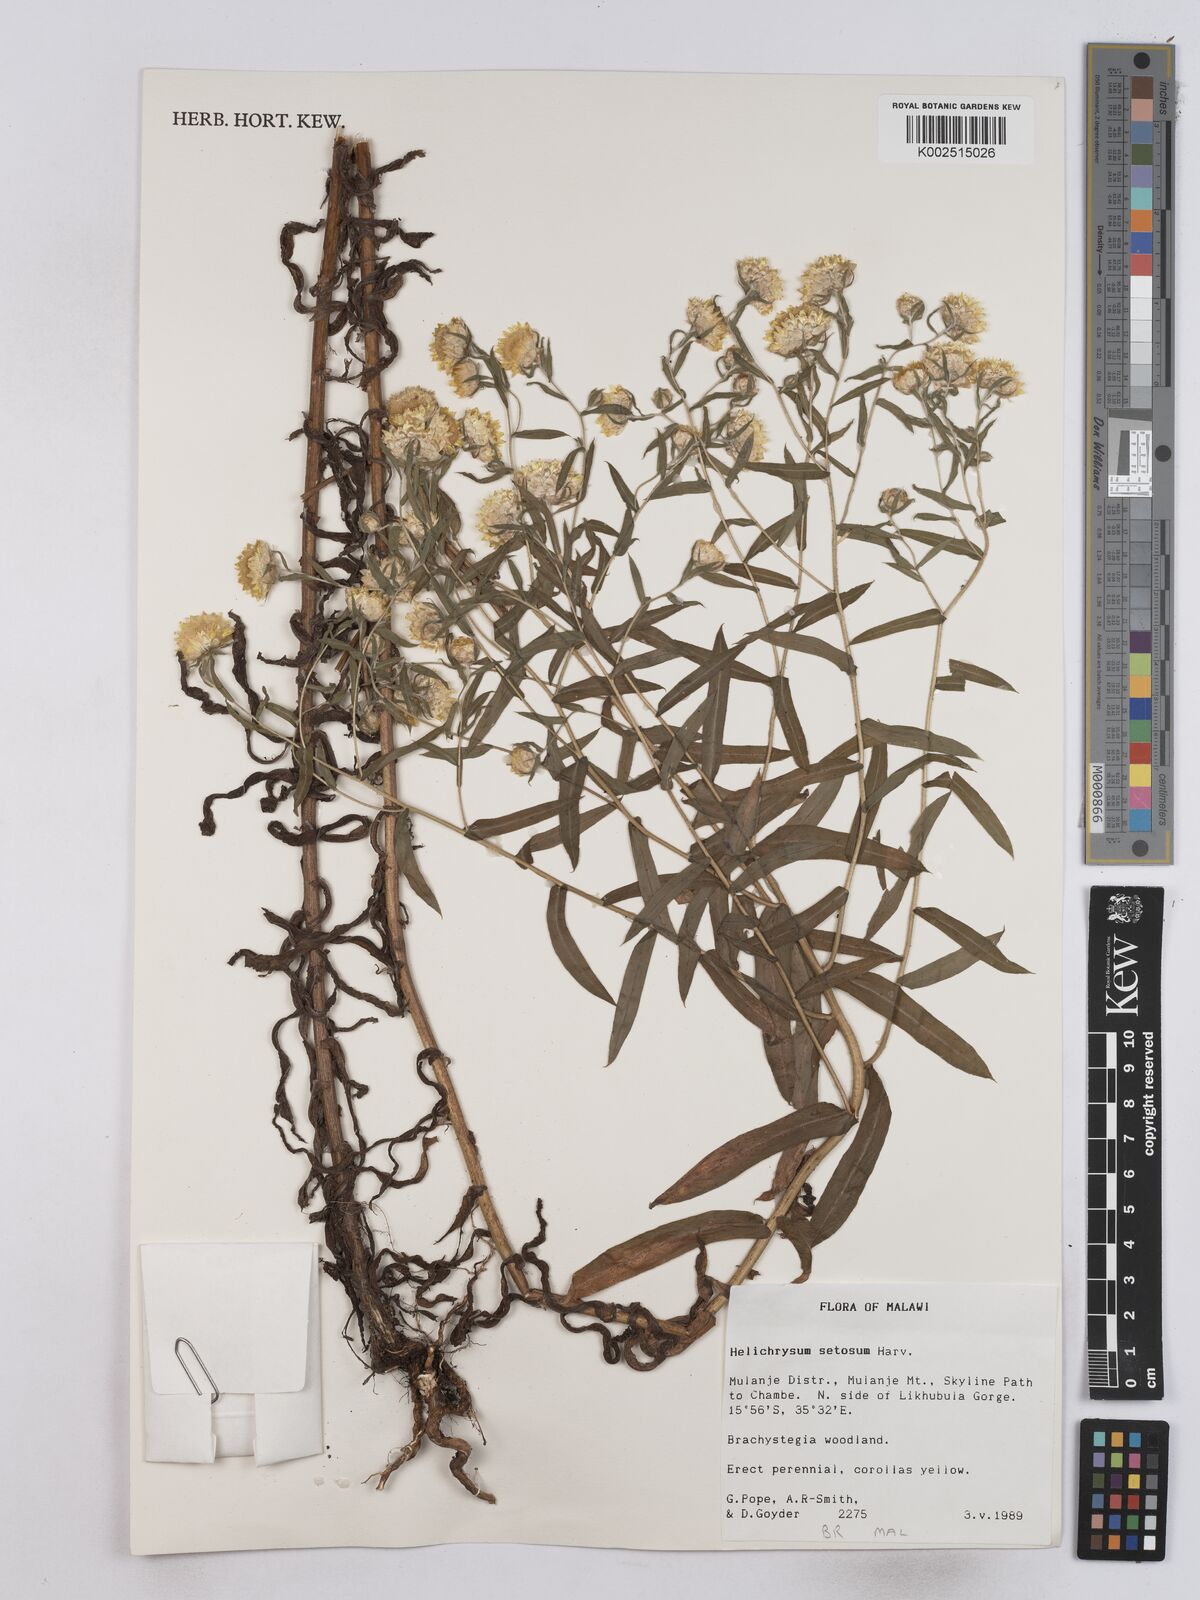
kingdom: Plantae
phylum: Tracheophyta
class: Magnoliopsida
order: Asterales
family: Asteraceae
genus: Helichrysum
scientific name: Helichrysum setosum
